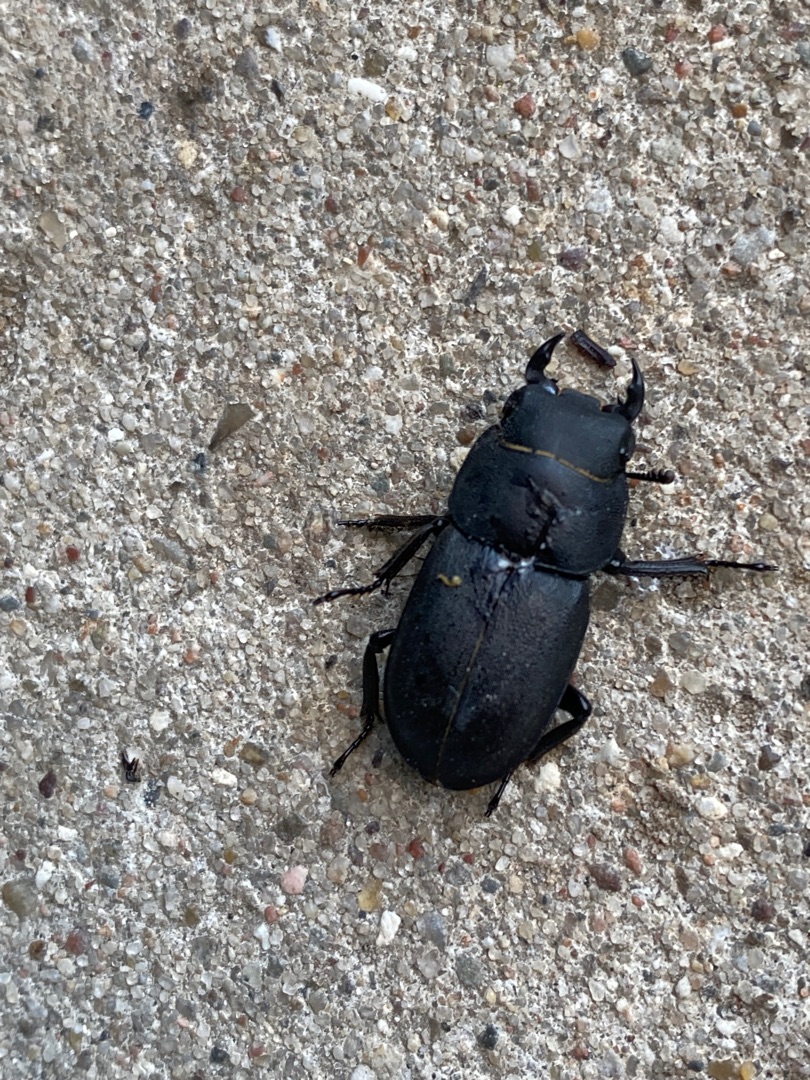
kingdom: Animalia
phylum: Arthropoda
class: Insecta
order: Coleoptera
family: Lucanidae
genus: Dorcus
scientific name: Dorcus parallelipipedus
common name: Bøghjort
